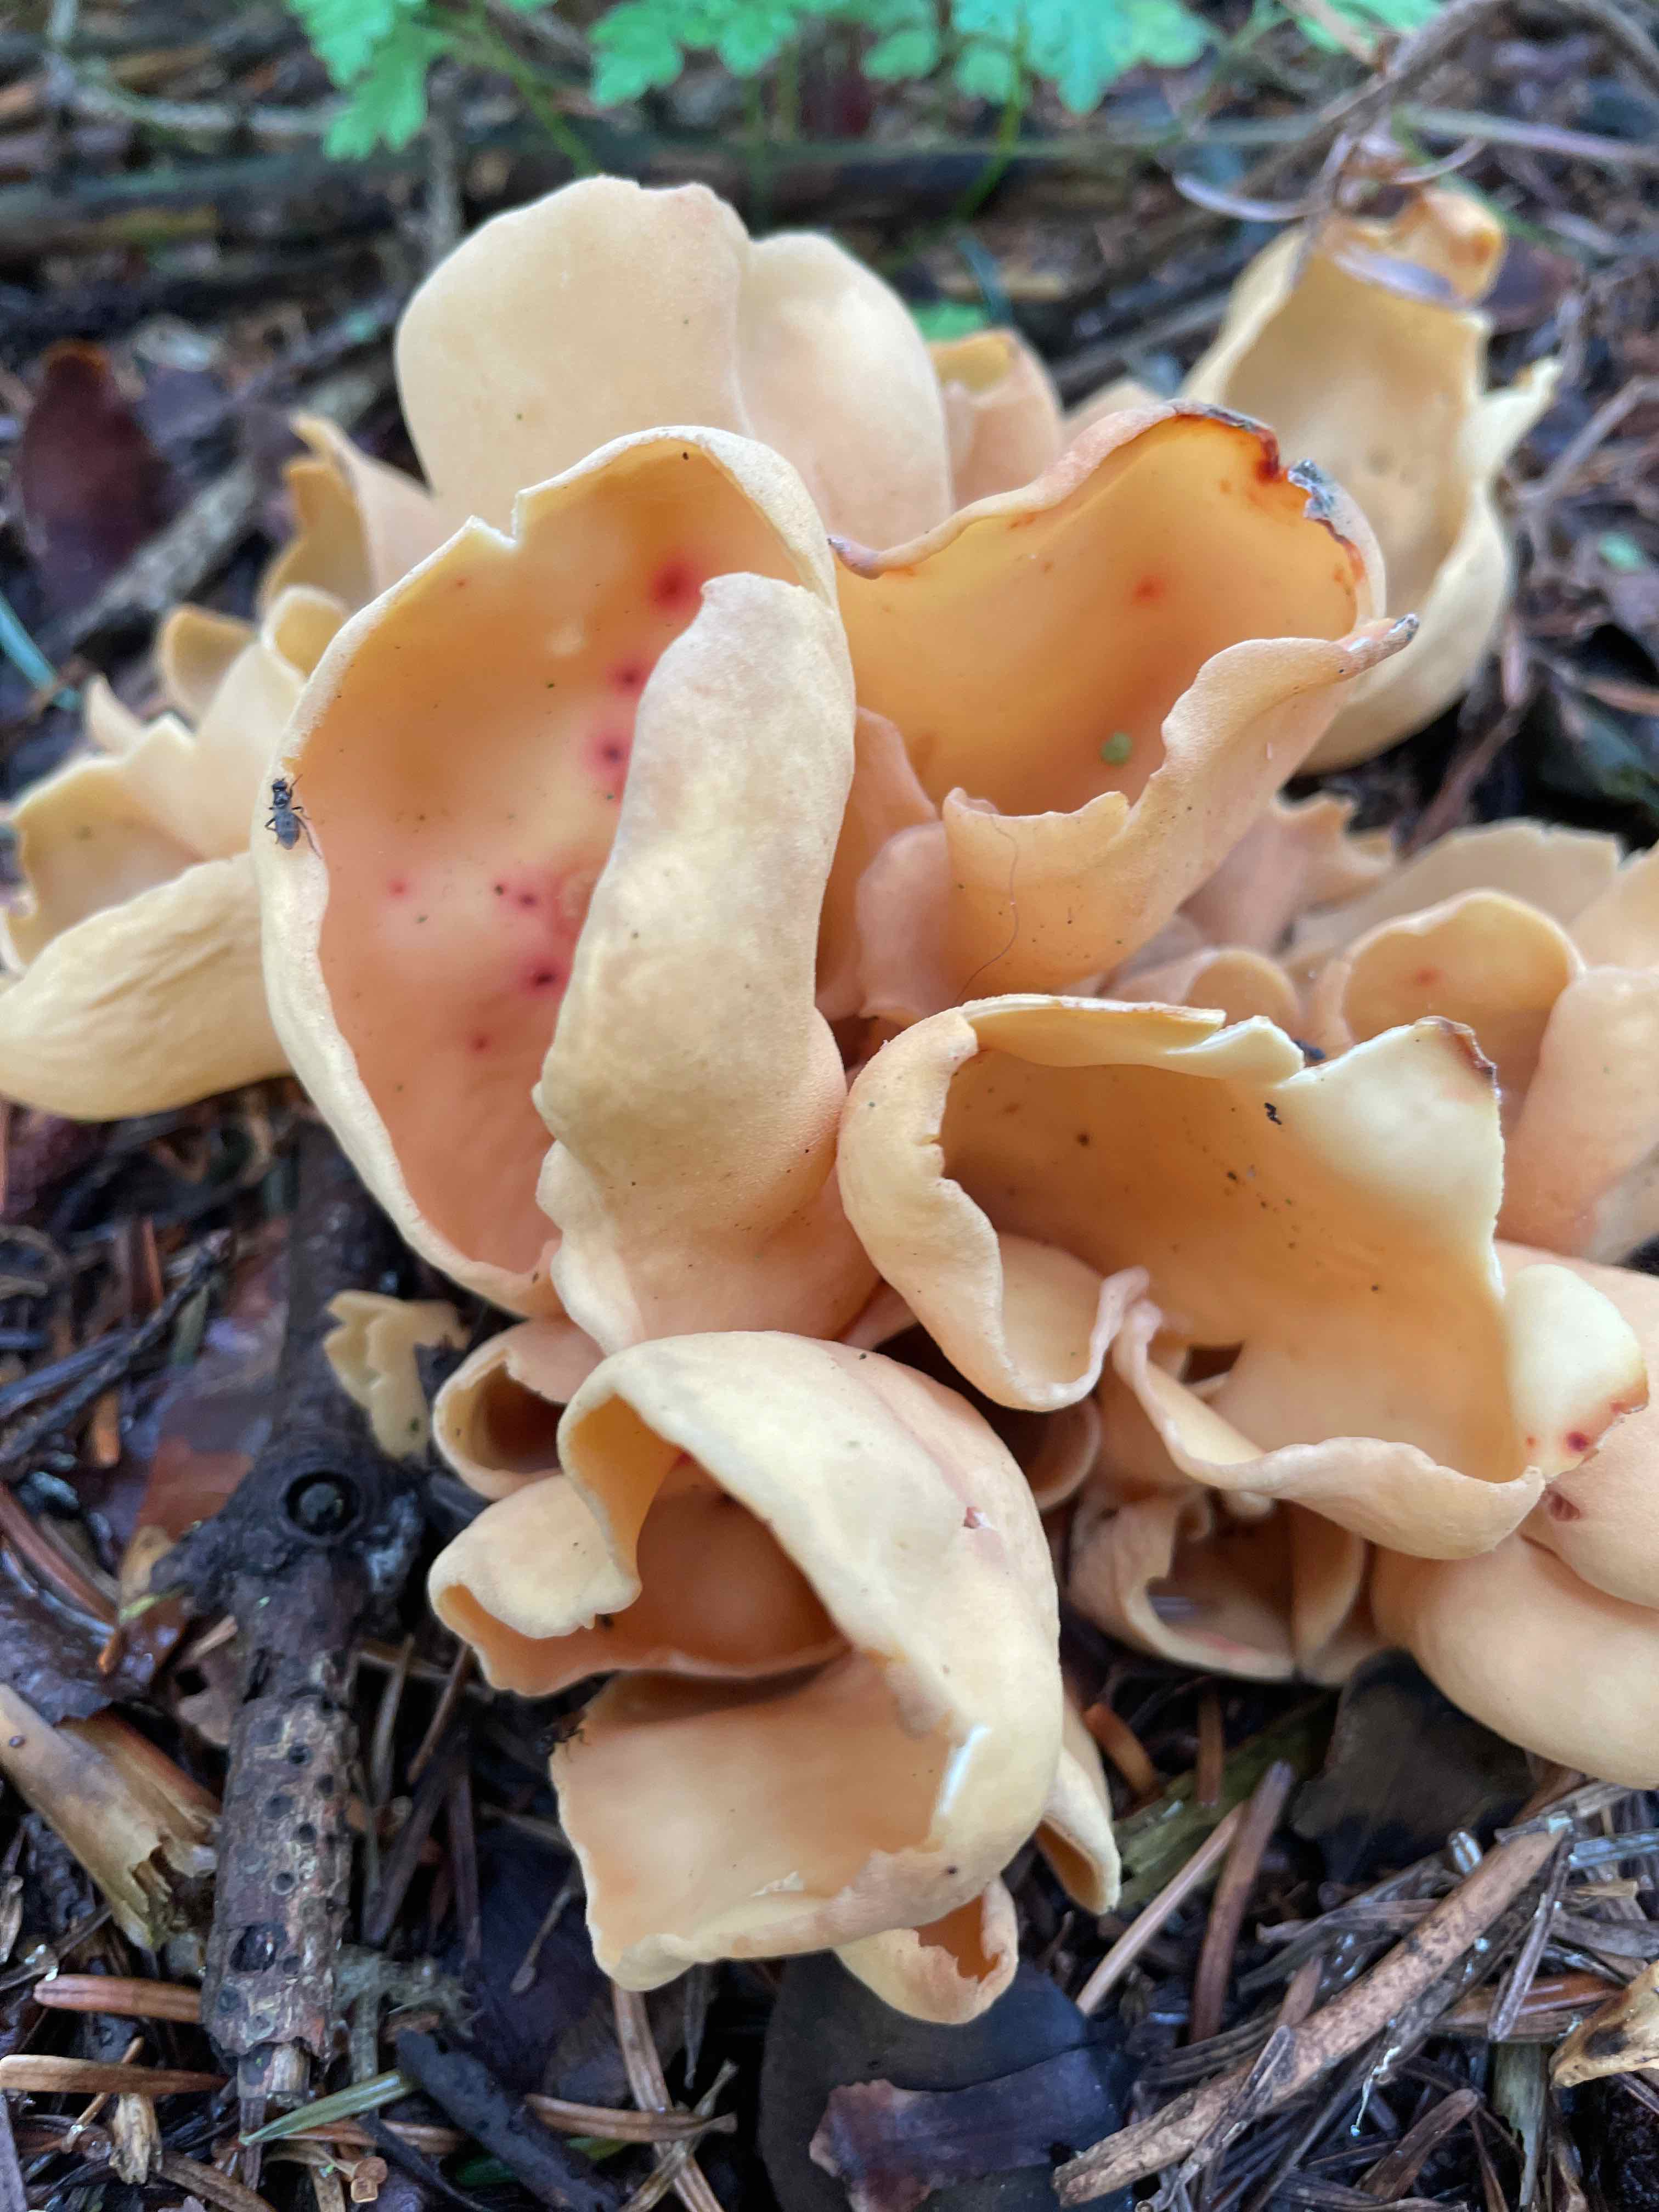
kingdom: Fungi
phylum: Ascomycota
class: Pezizomycetes
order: Pezizales
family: Otideaceae
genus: Otidea
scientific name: Otidea onotica
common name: æsel-ørebæger
